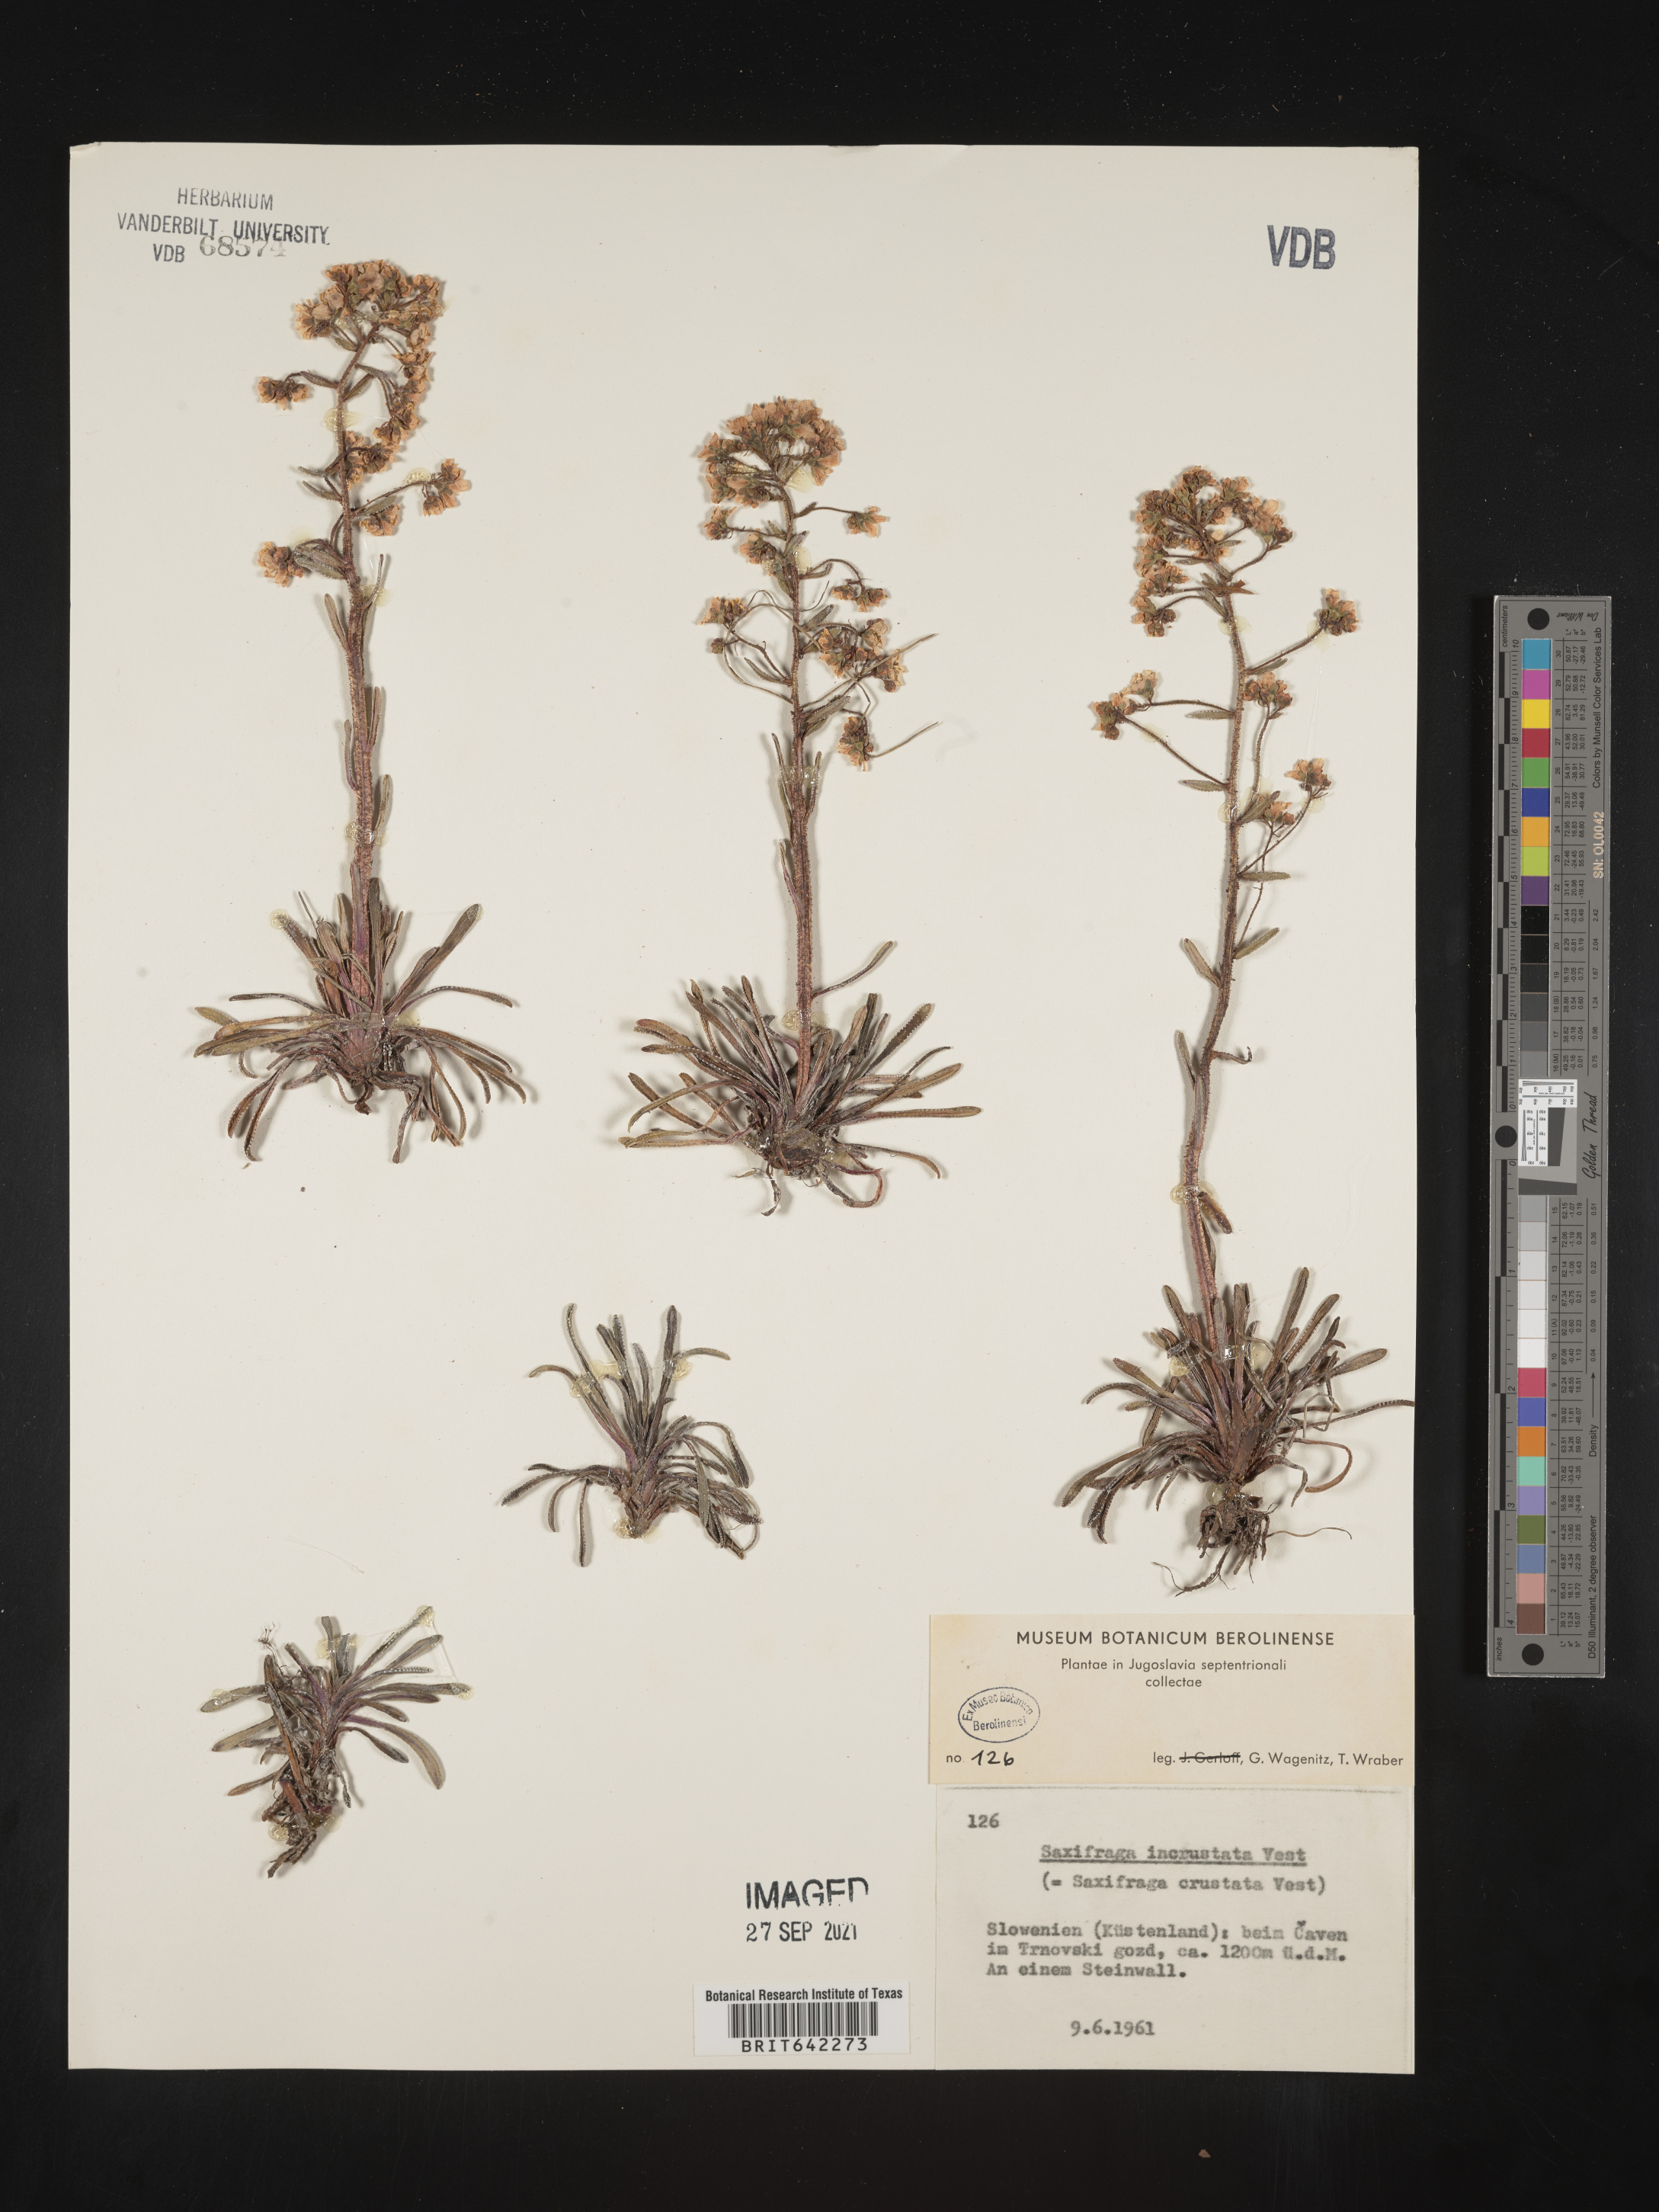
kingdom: Plantae
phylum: Tracheophyta
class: Magnoliopsida
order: Saxifragales
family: Saxifragaceae
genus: Saxifraga
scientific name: Saxifraga
